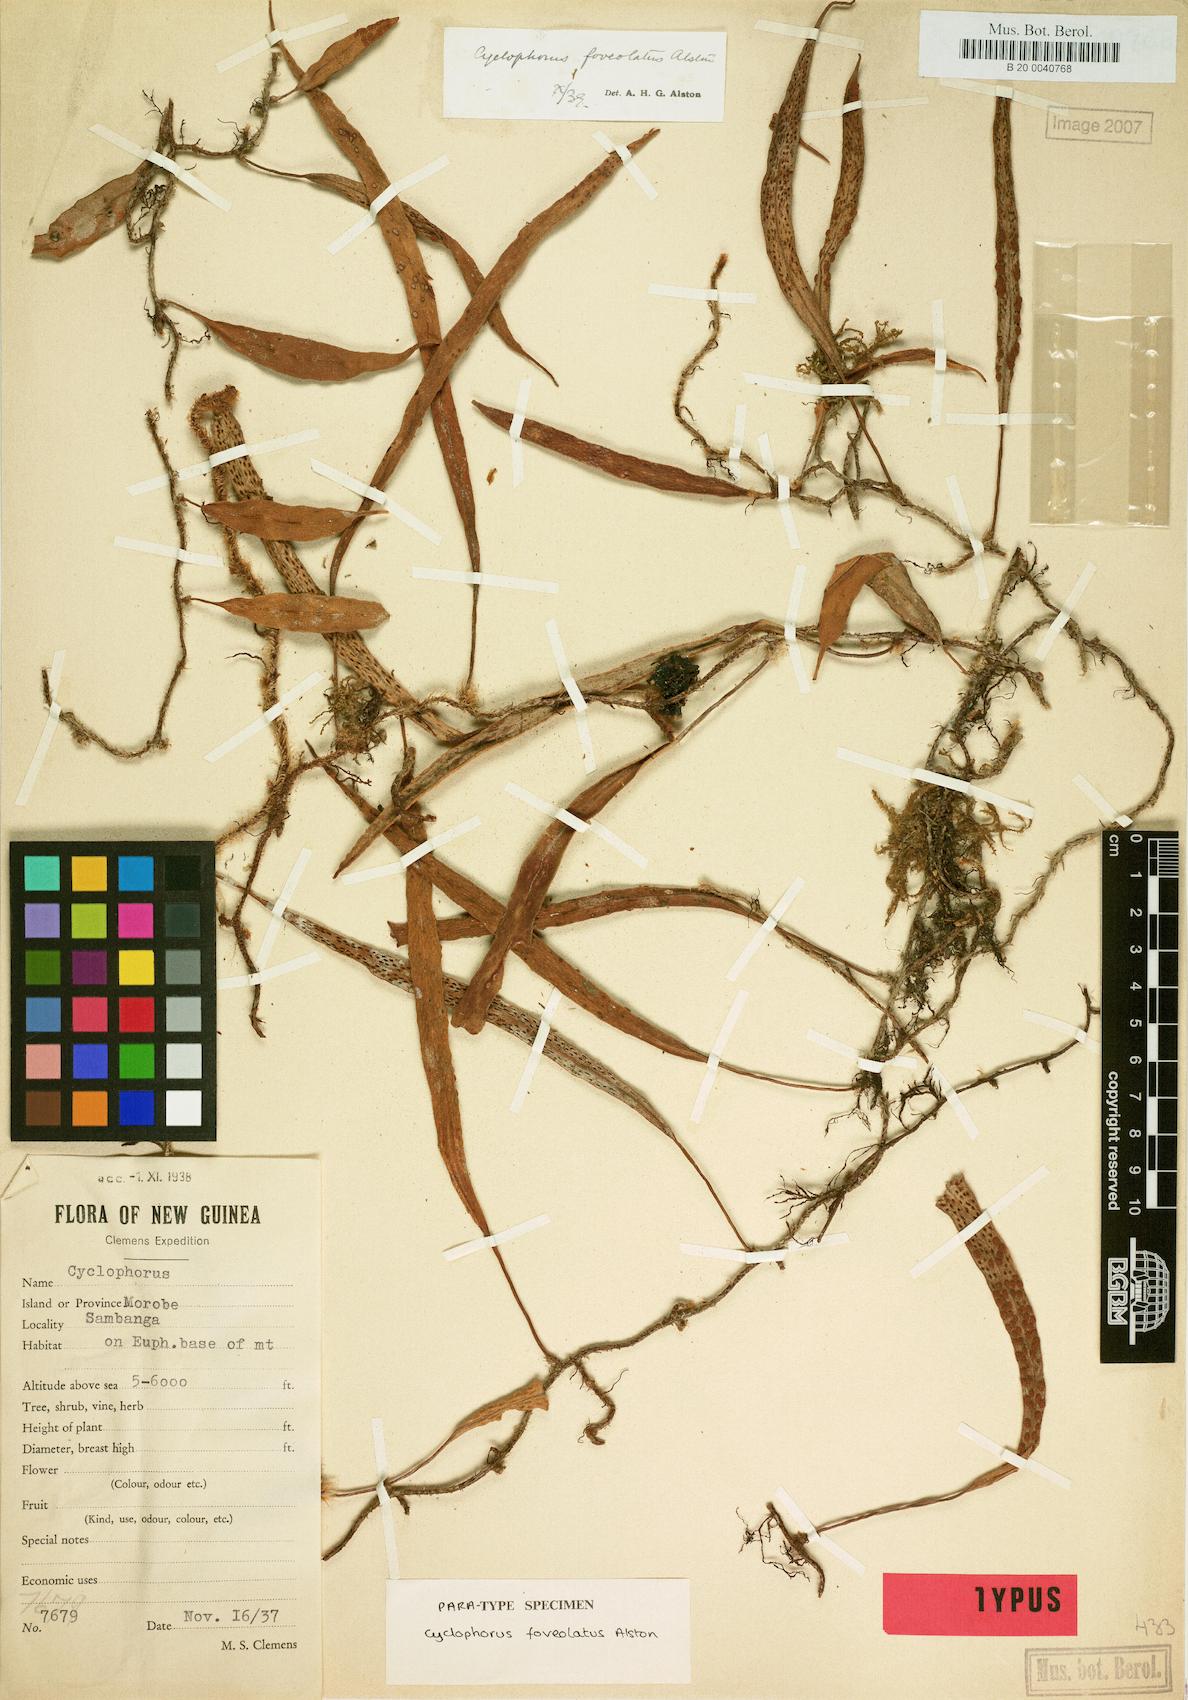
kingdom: Plantae
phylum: Tracheophyta
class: Polypodiopsida
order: Polypodiales
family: Polypodiaceae
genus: Pyrrosia
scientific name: Pyrrosia foveolata
